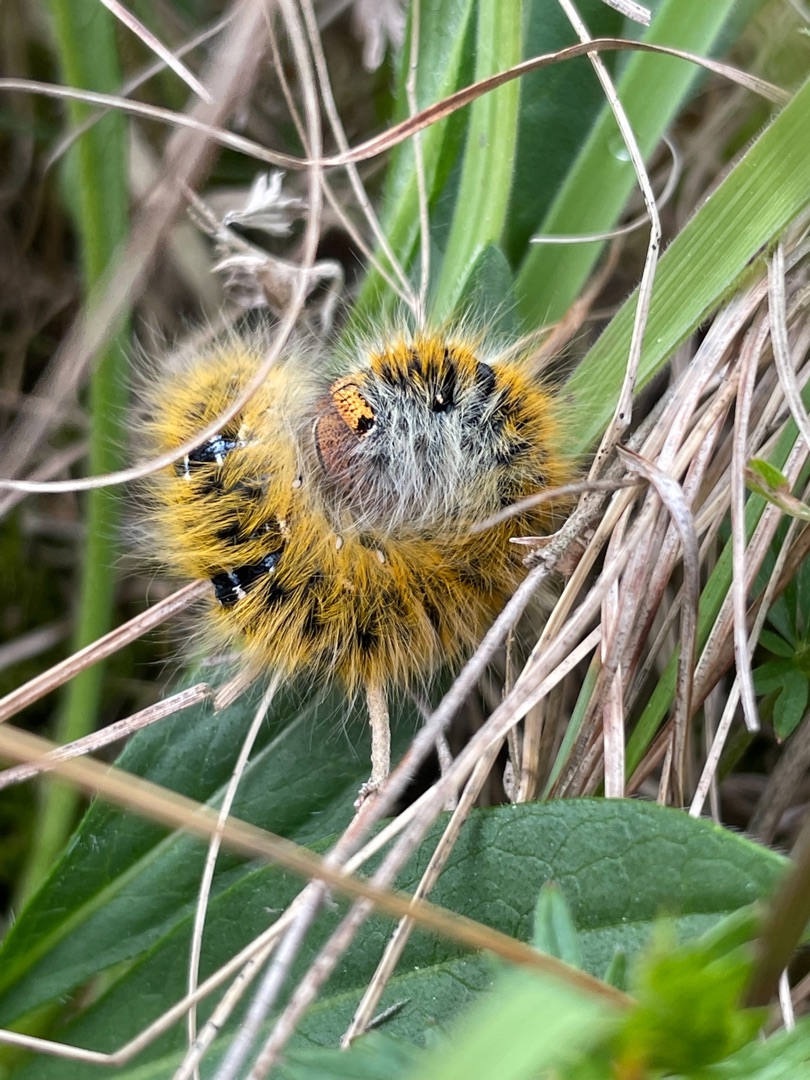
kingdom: Animalia
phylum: Arthropoda
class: Insecta
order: Lepidoptera
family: Lasiocampidae
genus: Lasiocampa
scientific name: Lasiocampa trifolii
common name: Kløverspinder
